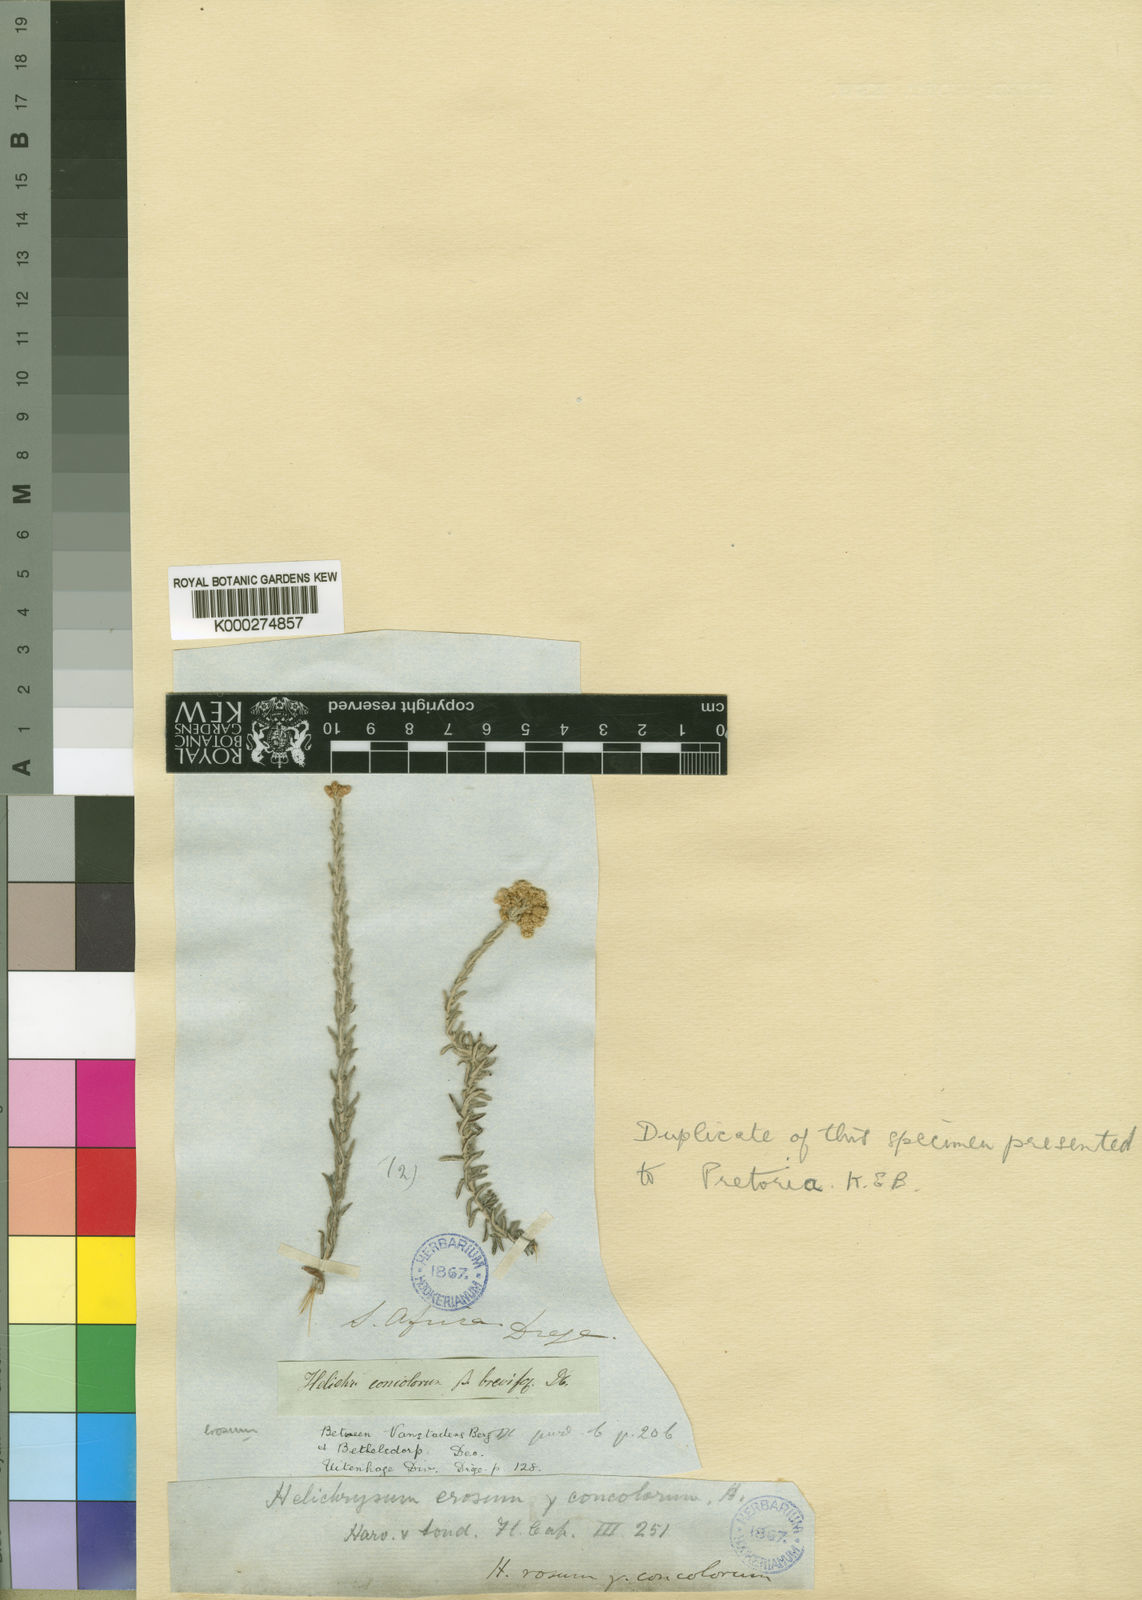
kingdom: Plantae
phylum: Tracheophyta
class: Magnoliopsida
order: Asterales
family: Asteraceae
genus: Helichrysum
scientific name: Helichrysum rosum
